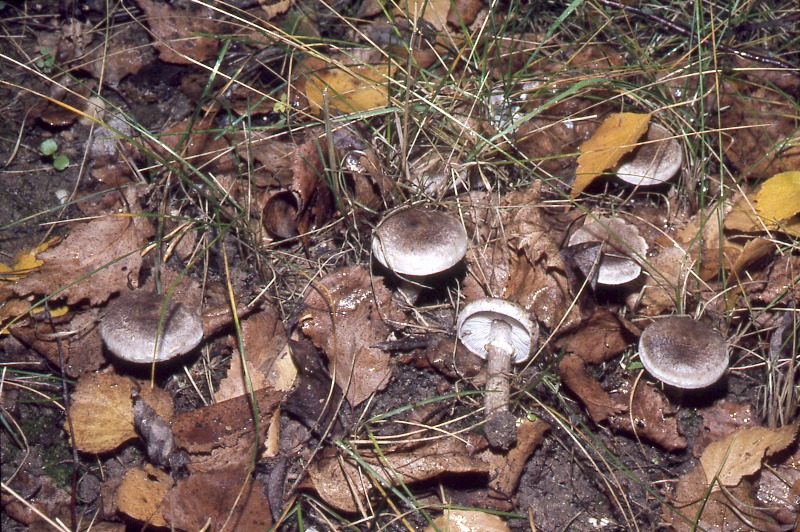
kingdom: Fungi
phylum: Basidiomycota
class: Agaricomycetes
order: Agaricales
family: Tricholomataceae
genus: Tricholoma
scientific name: Tricholoma cingulatum
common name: Girdled knight
